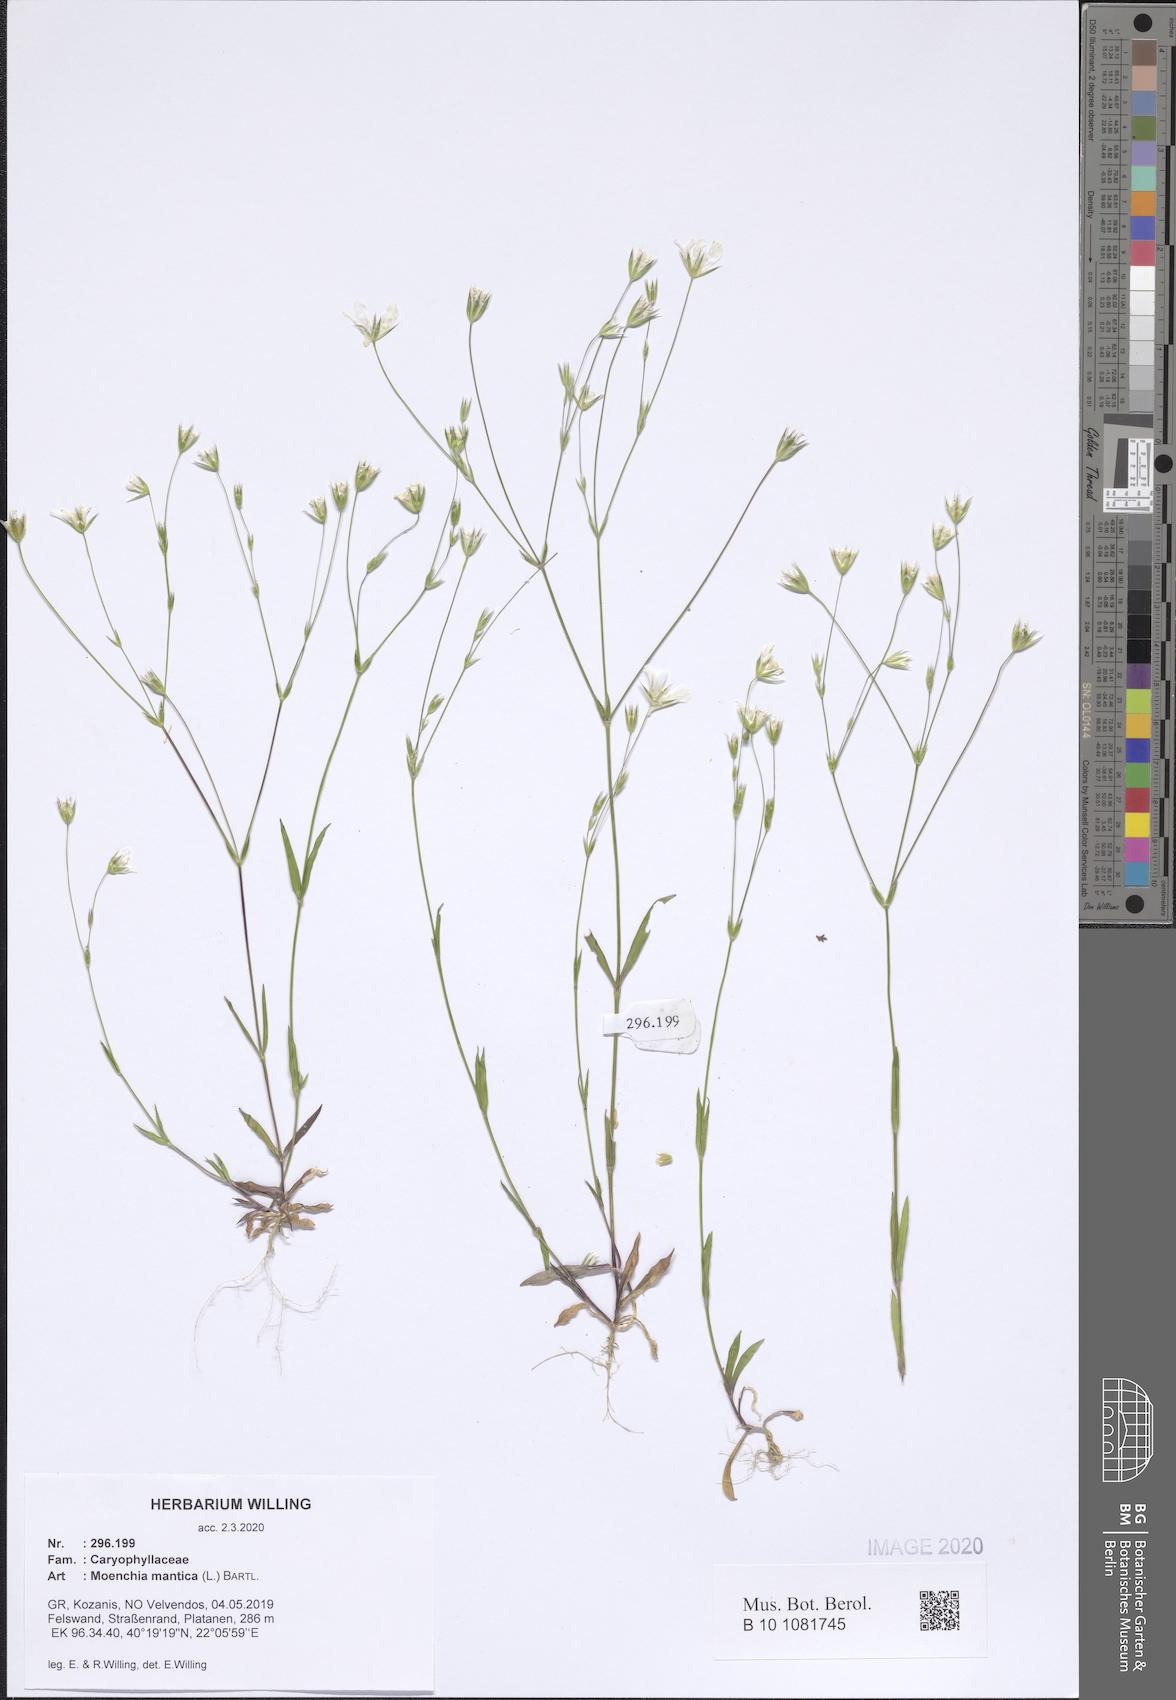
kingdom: Plantae
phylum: Tracheophyta
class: Magnoliopsida
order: Caryophyllales
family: Caryophyllaceae
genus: Moenchia
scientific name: Moenchia mantica
